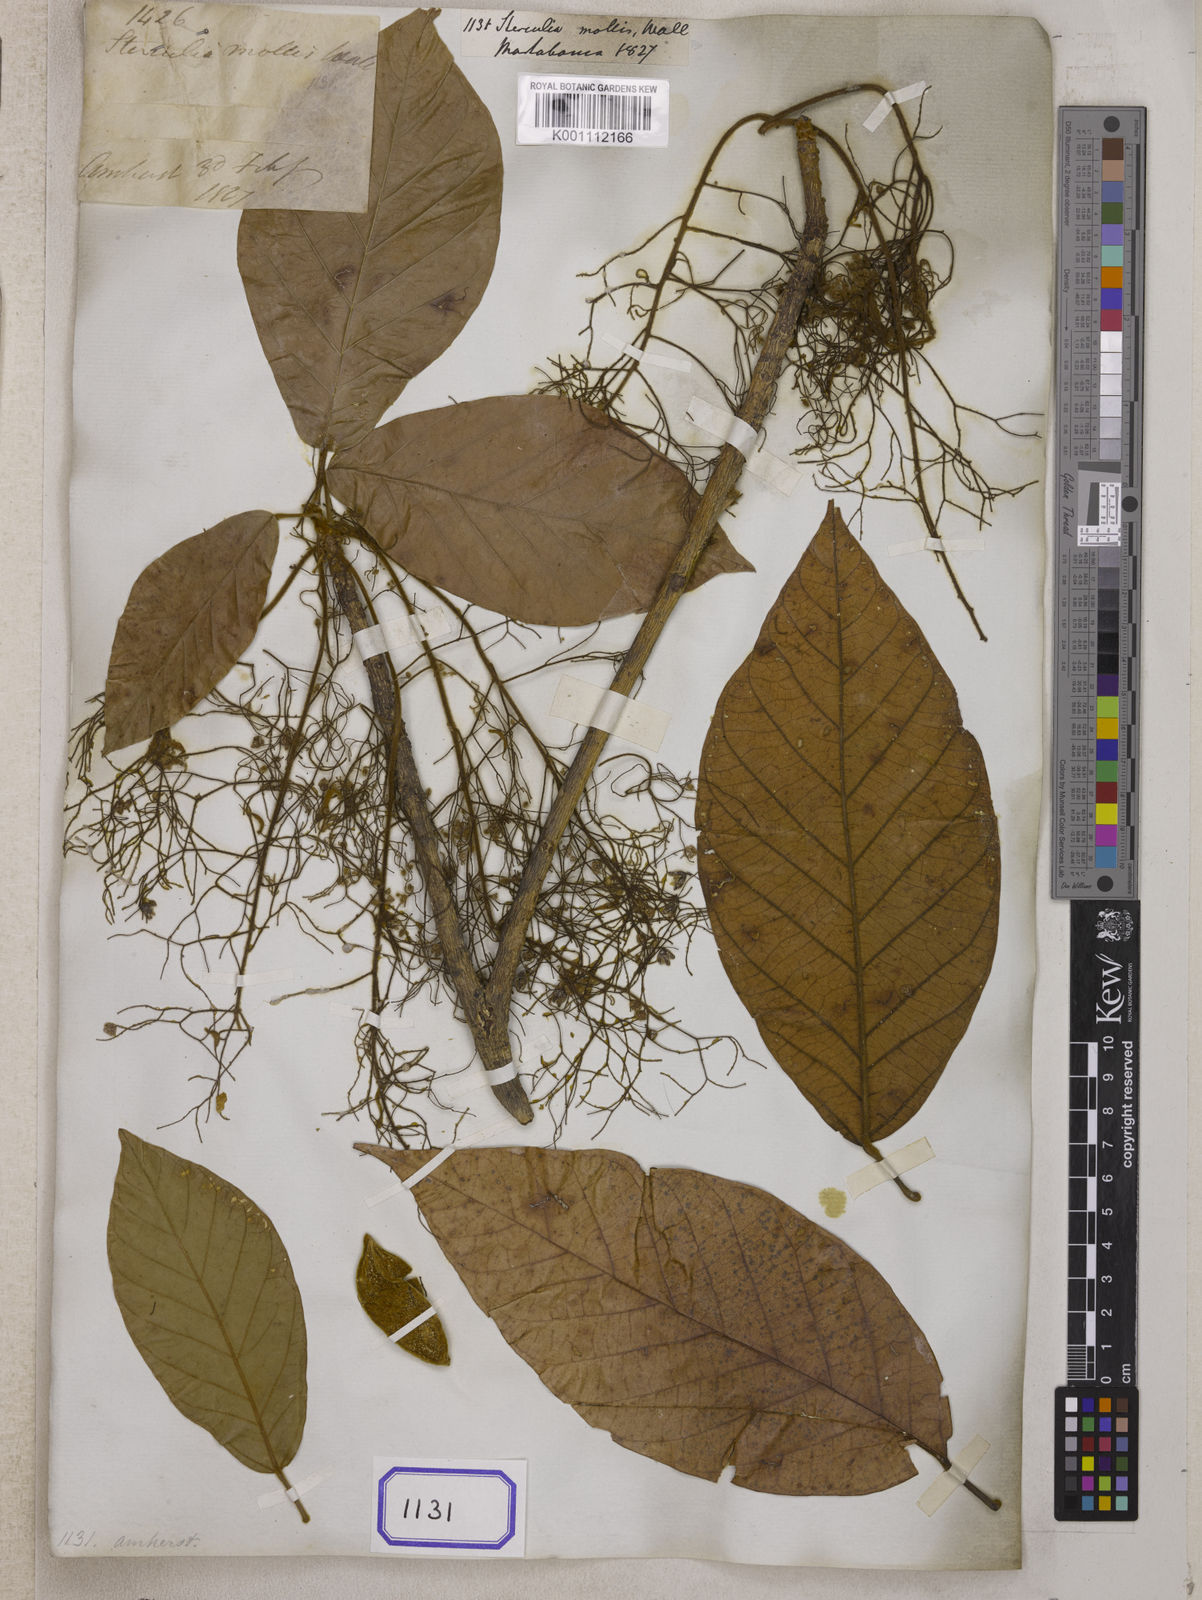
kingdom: Plantae
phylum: Tracheophyta
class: Magnoliopsida
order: Malvales
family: Malvaceae
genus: Sterculia
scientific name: Sterculia
